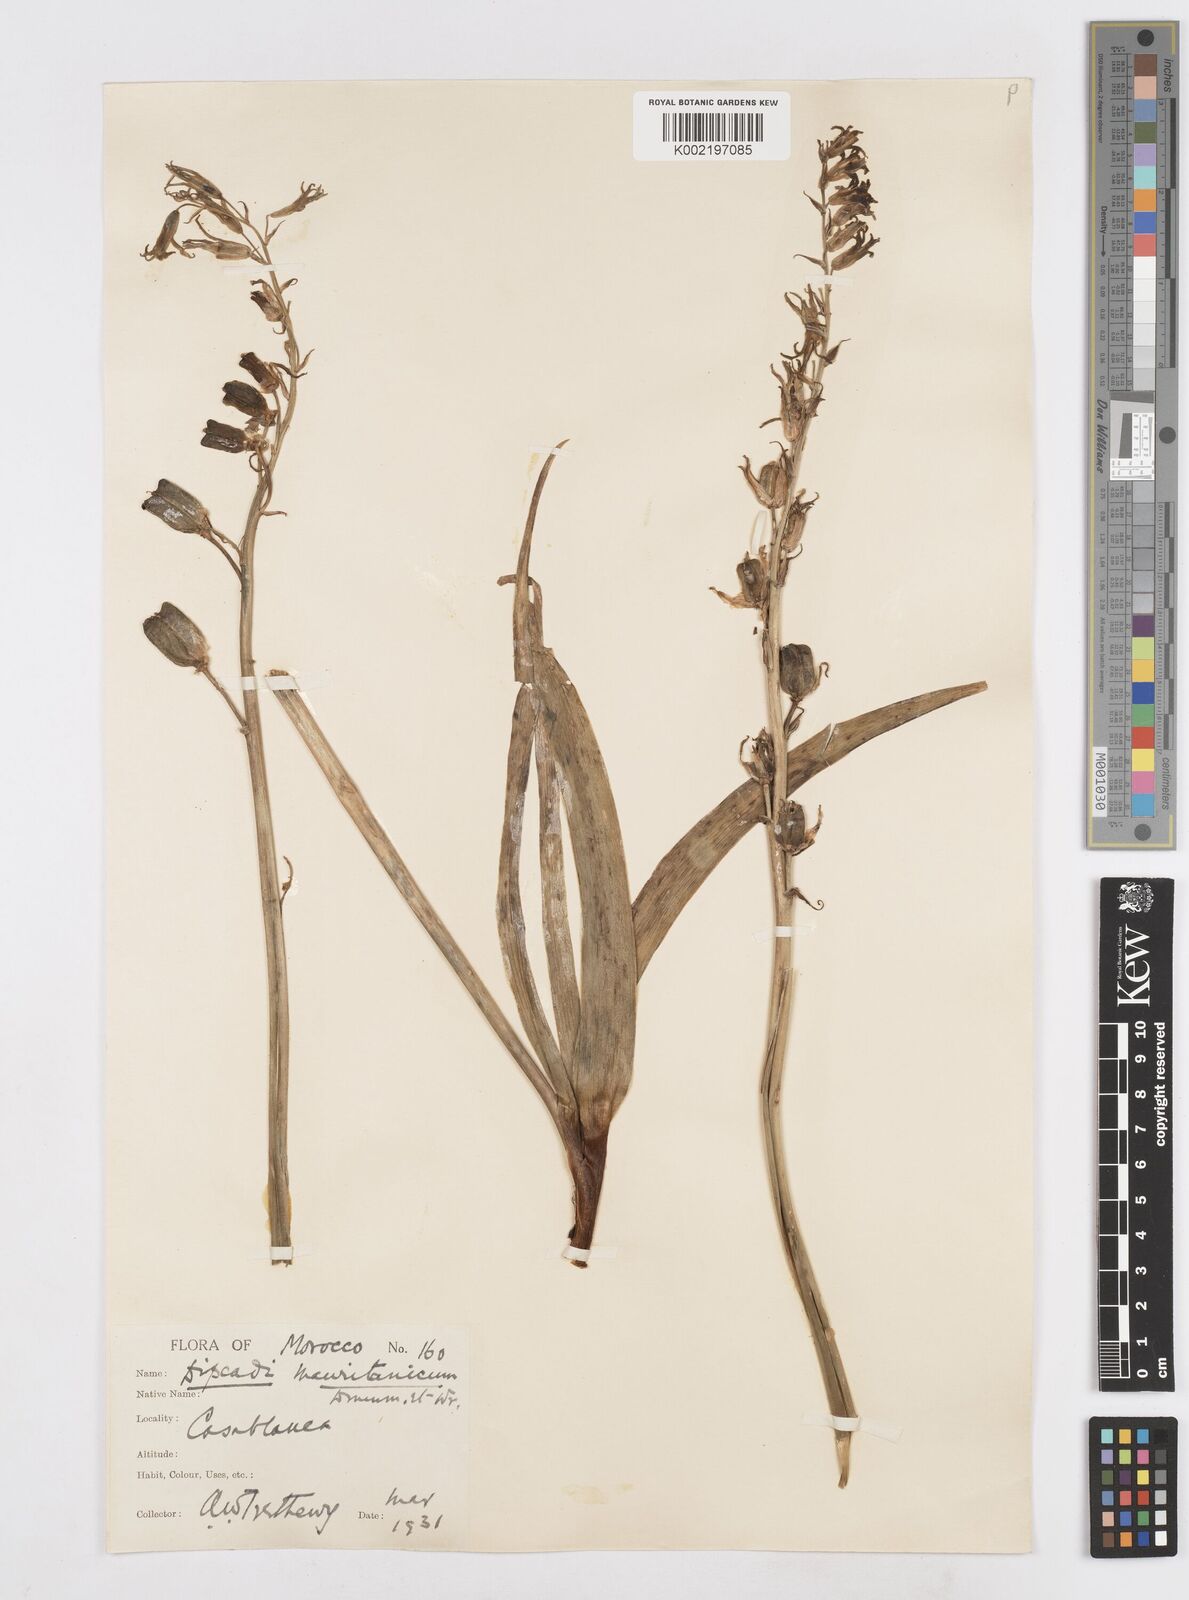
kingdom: Plantae
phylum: Tracheophyta
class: Liliopsida
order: Asparagales
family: Asparagaceae
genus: Dipcadi
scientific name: Dipcadi serotinum
